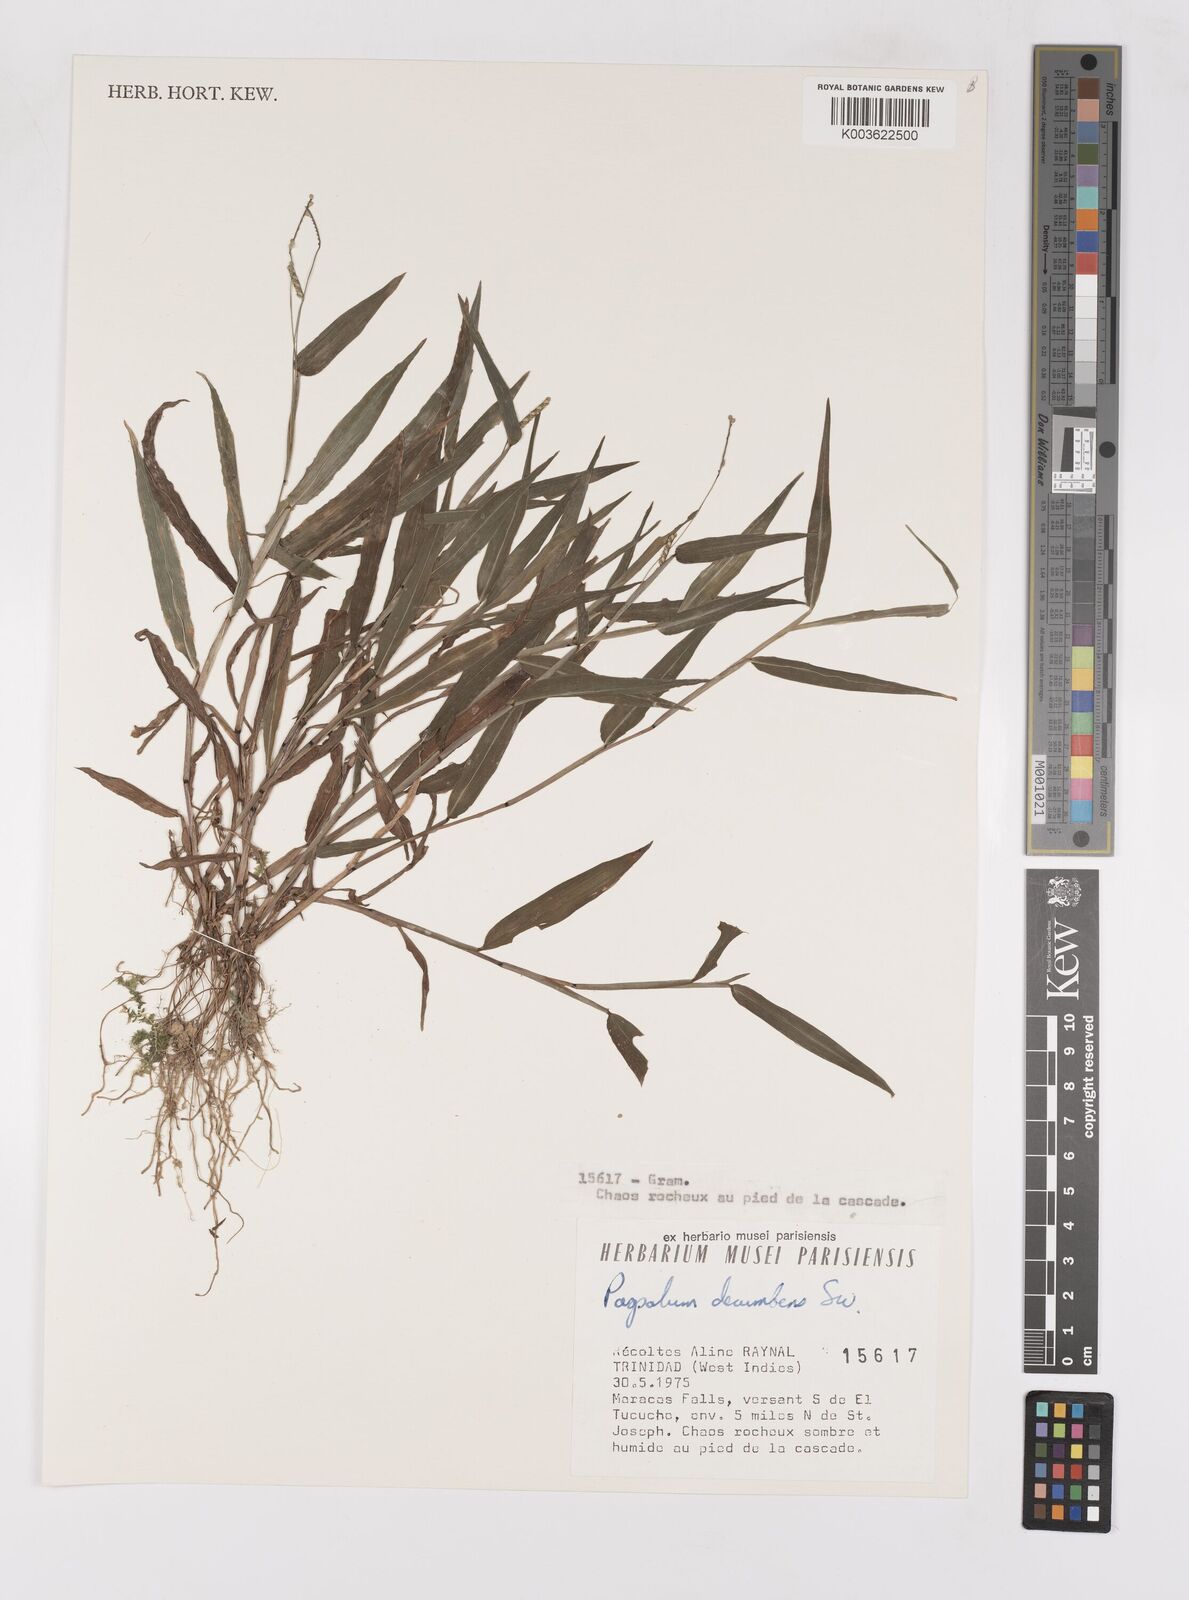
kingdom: Plantae
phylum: Tracheophyta
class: Liliopsida
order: Poales
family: Poaceae
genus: Paspalum
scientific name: Paspalum decumbens
